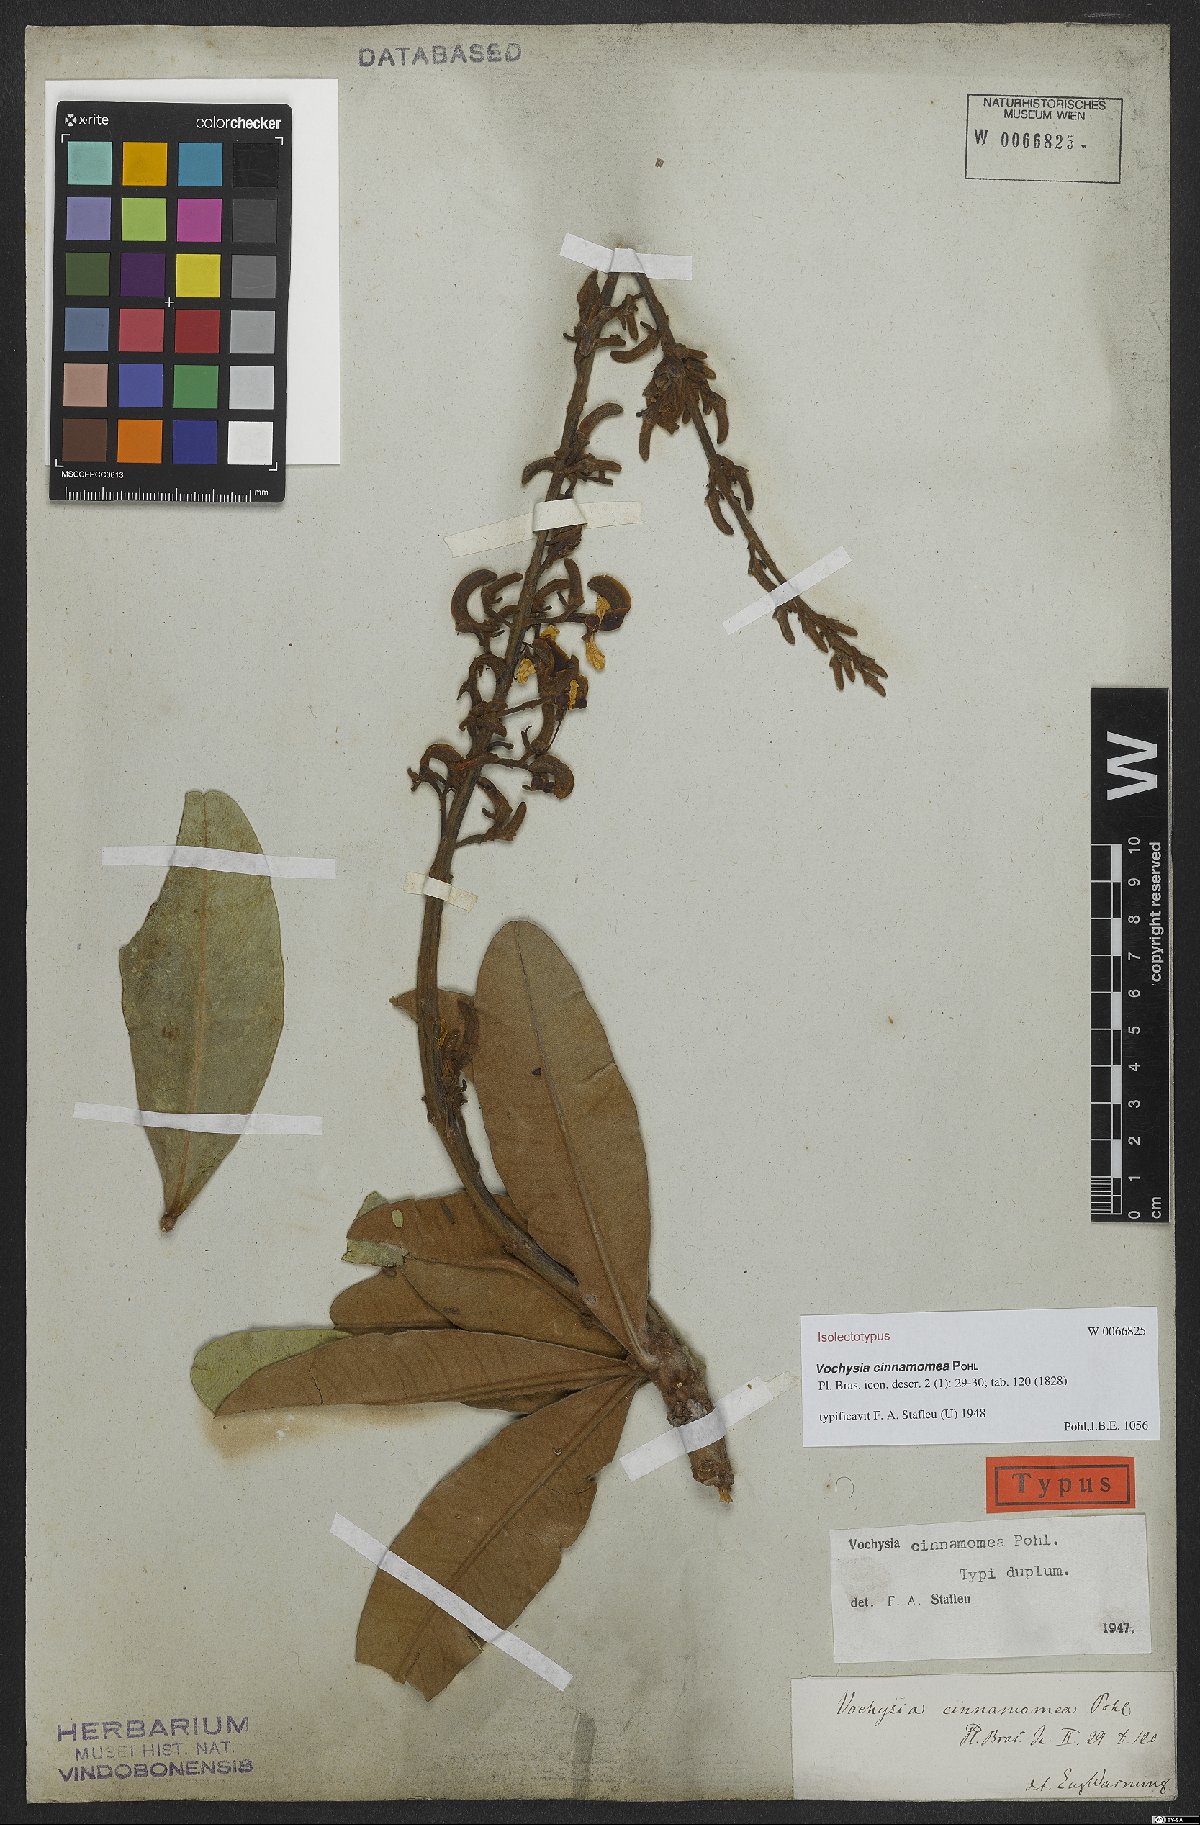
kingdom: Plantae
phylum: Tracheophyta
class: Magnoliopsida
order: Myrtales
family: Vochysiaceae
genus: Vochysia
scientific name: Vochysia cinnamomea
